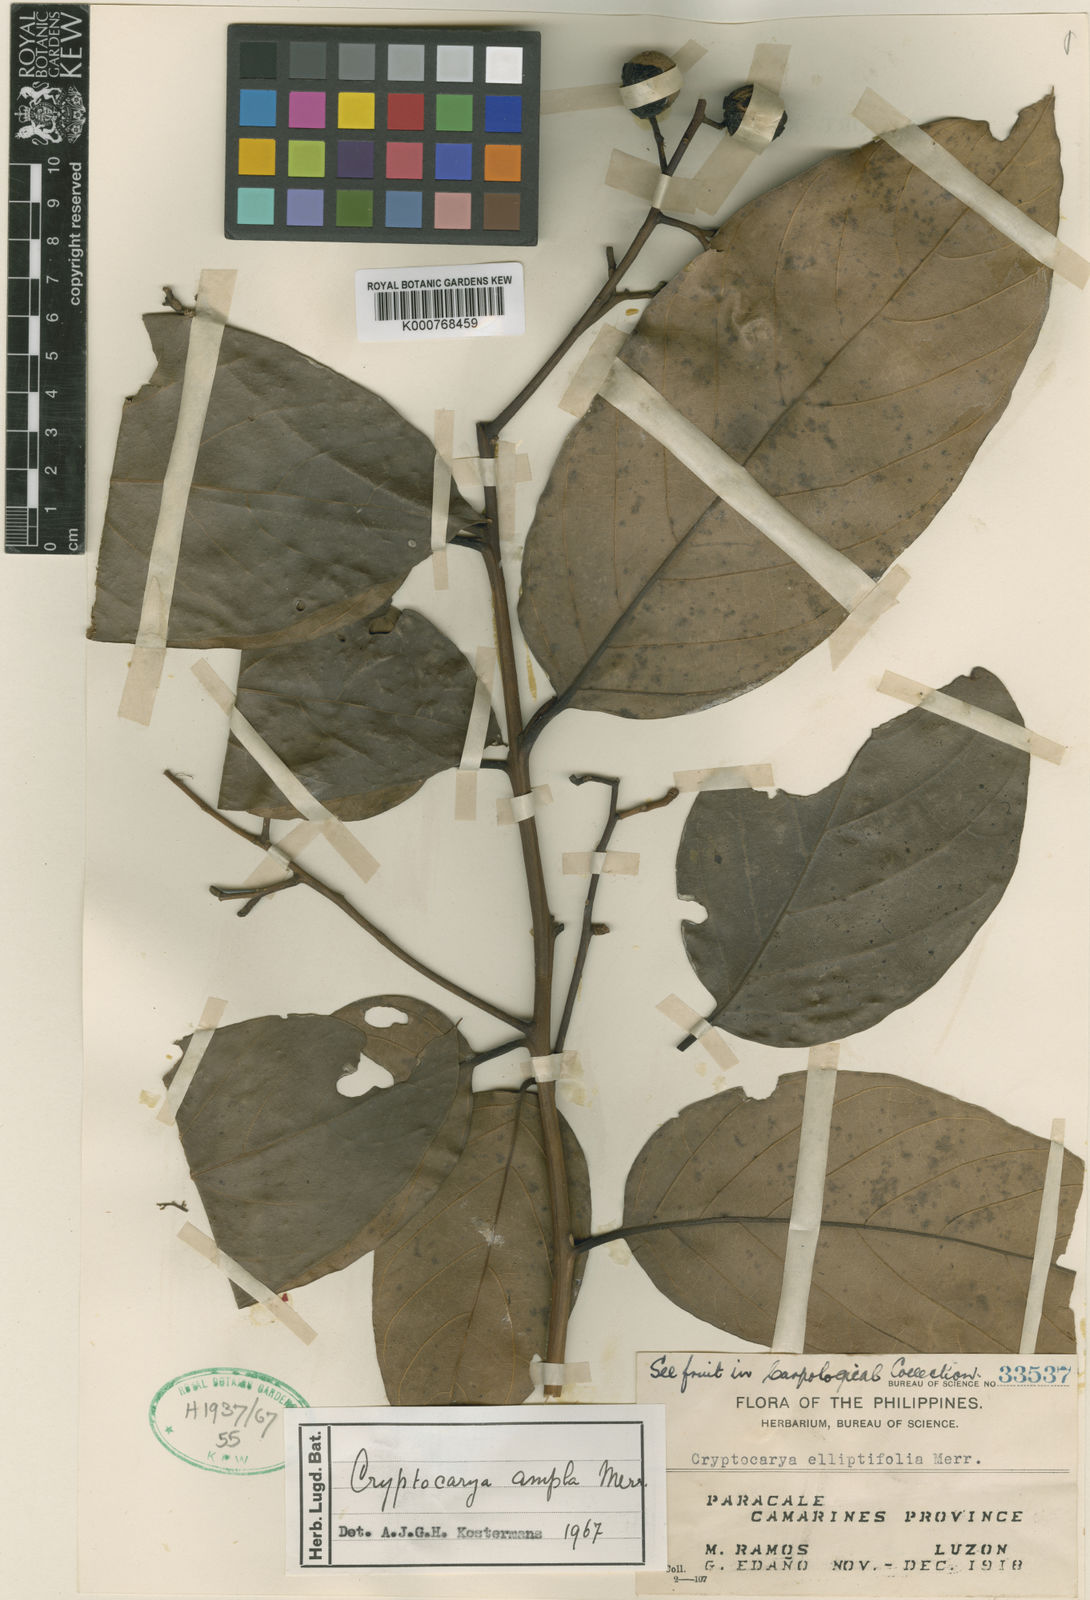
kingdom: Plantae
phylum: Tracheophyta
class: Magnoliopsida
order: Laurales
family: Lauraceae
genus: Cryptocarya
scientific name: Cryptocarya ampla
